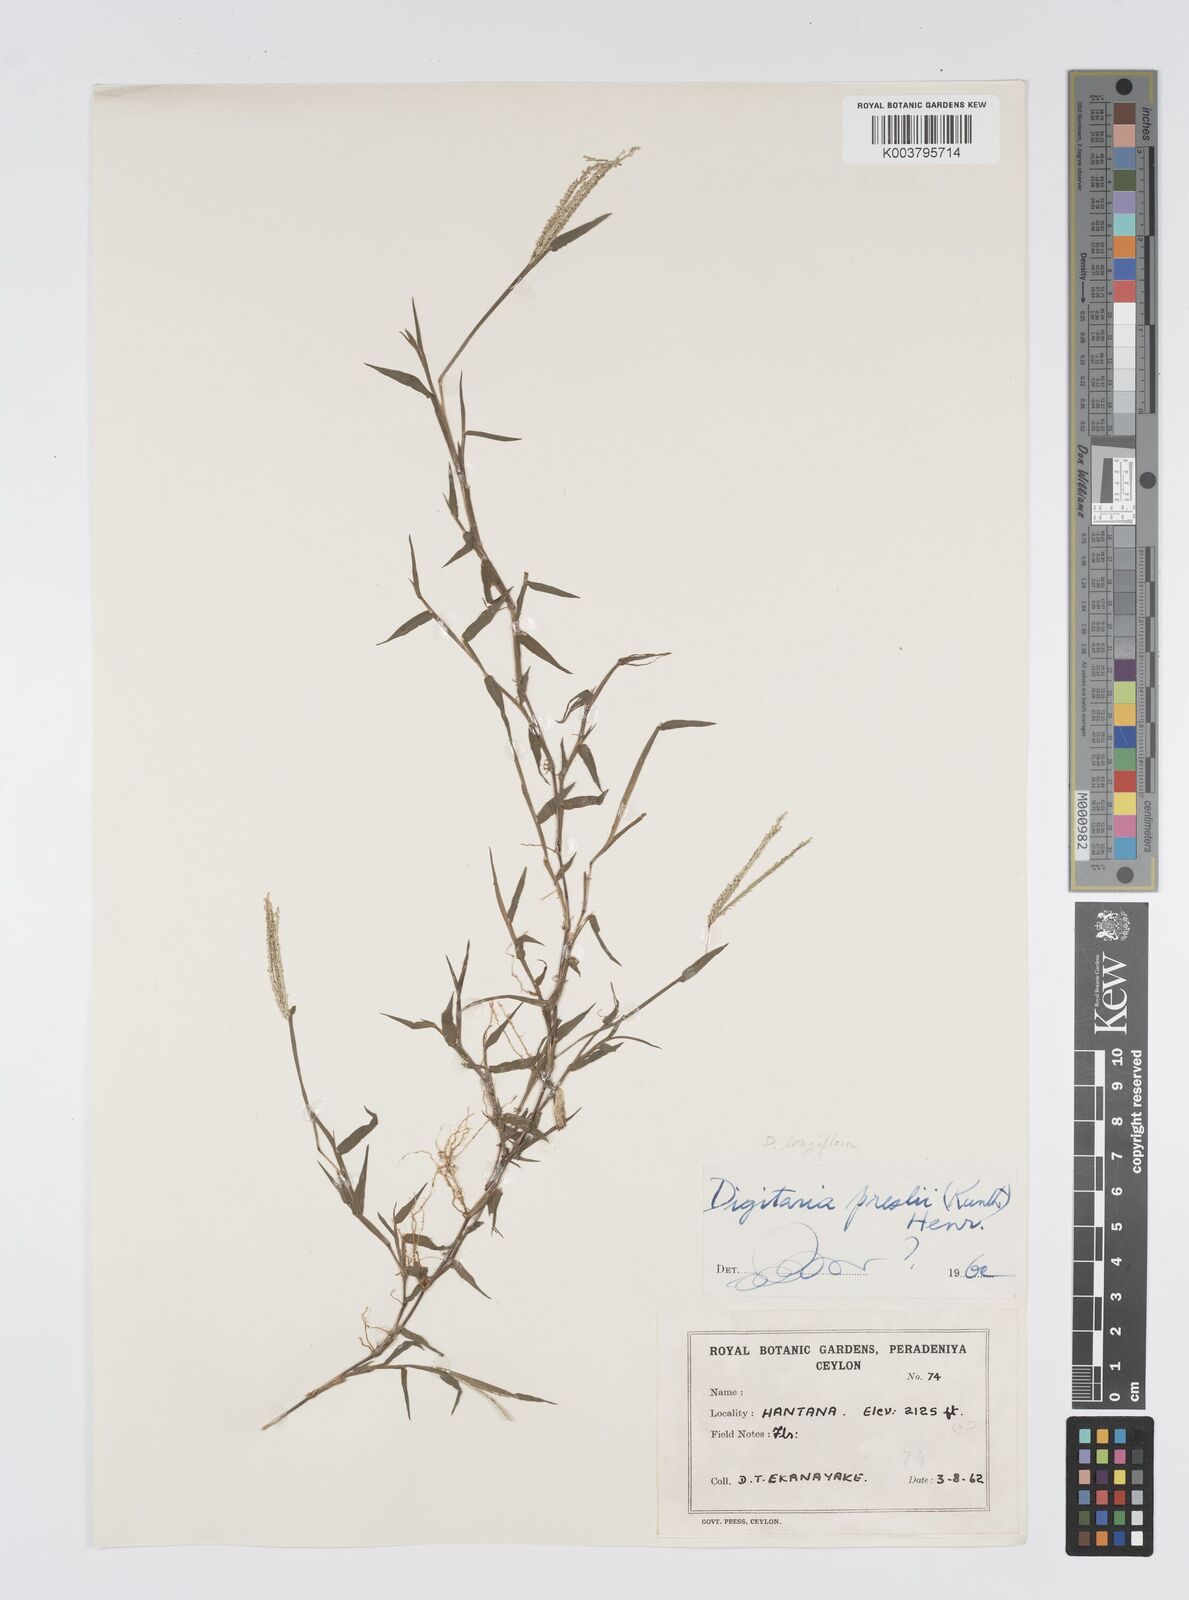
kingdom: Plantae
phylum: Tracheophyta
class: Liliopsida
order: Poales
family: Poaceae
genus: Digitaria
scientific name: Digitaria longiflora
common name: Wire crabgrass
